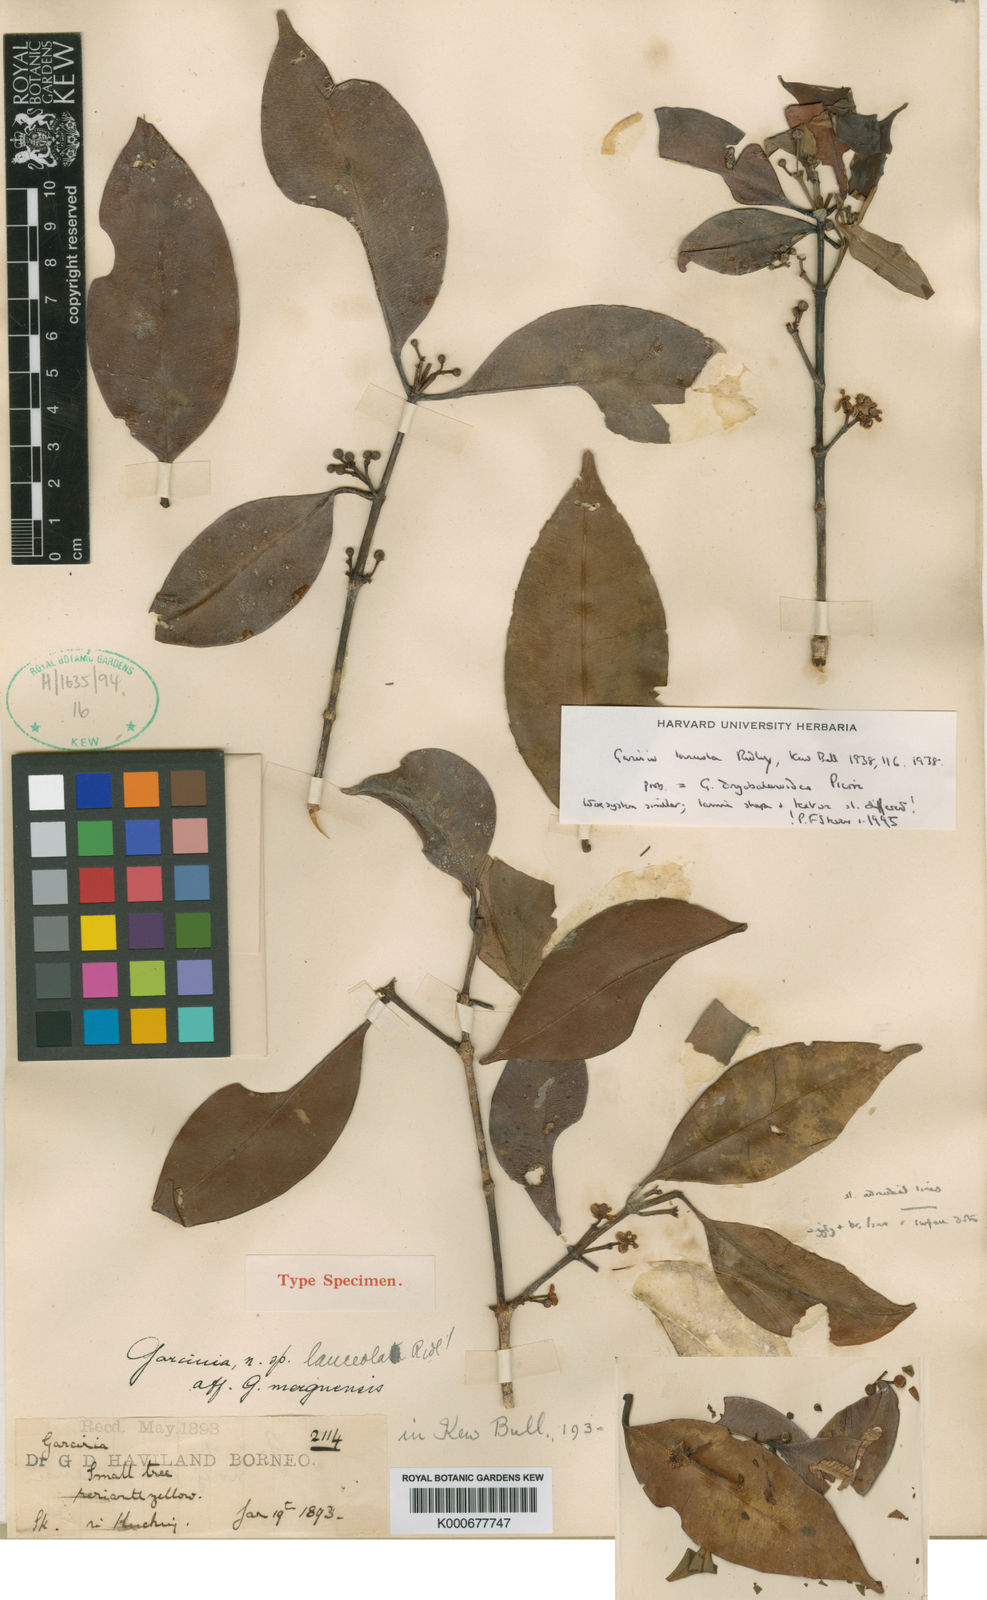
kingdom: Plantae
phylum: Tracheophyta
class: Magnoliopsida
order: Malpighiales
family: Clusiaceae
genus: Garcinia
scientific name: Garcinia lanceola
